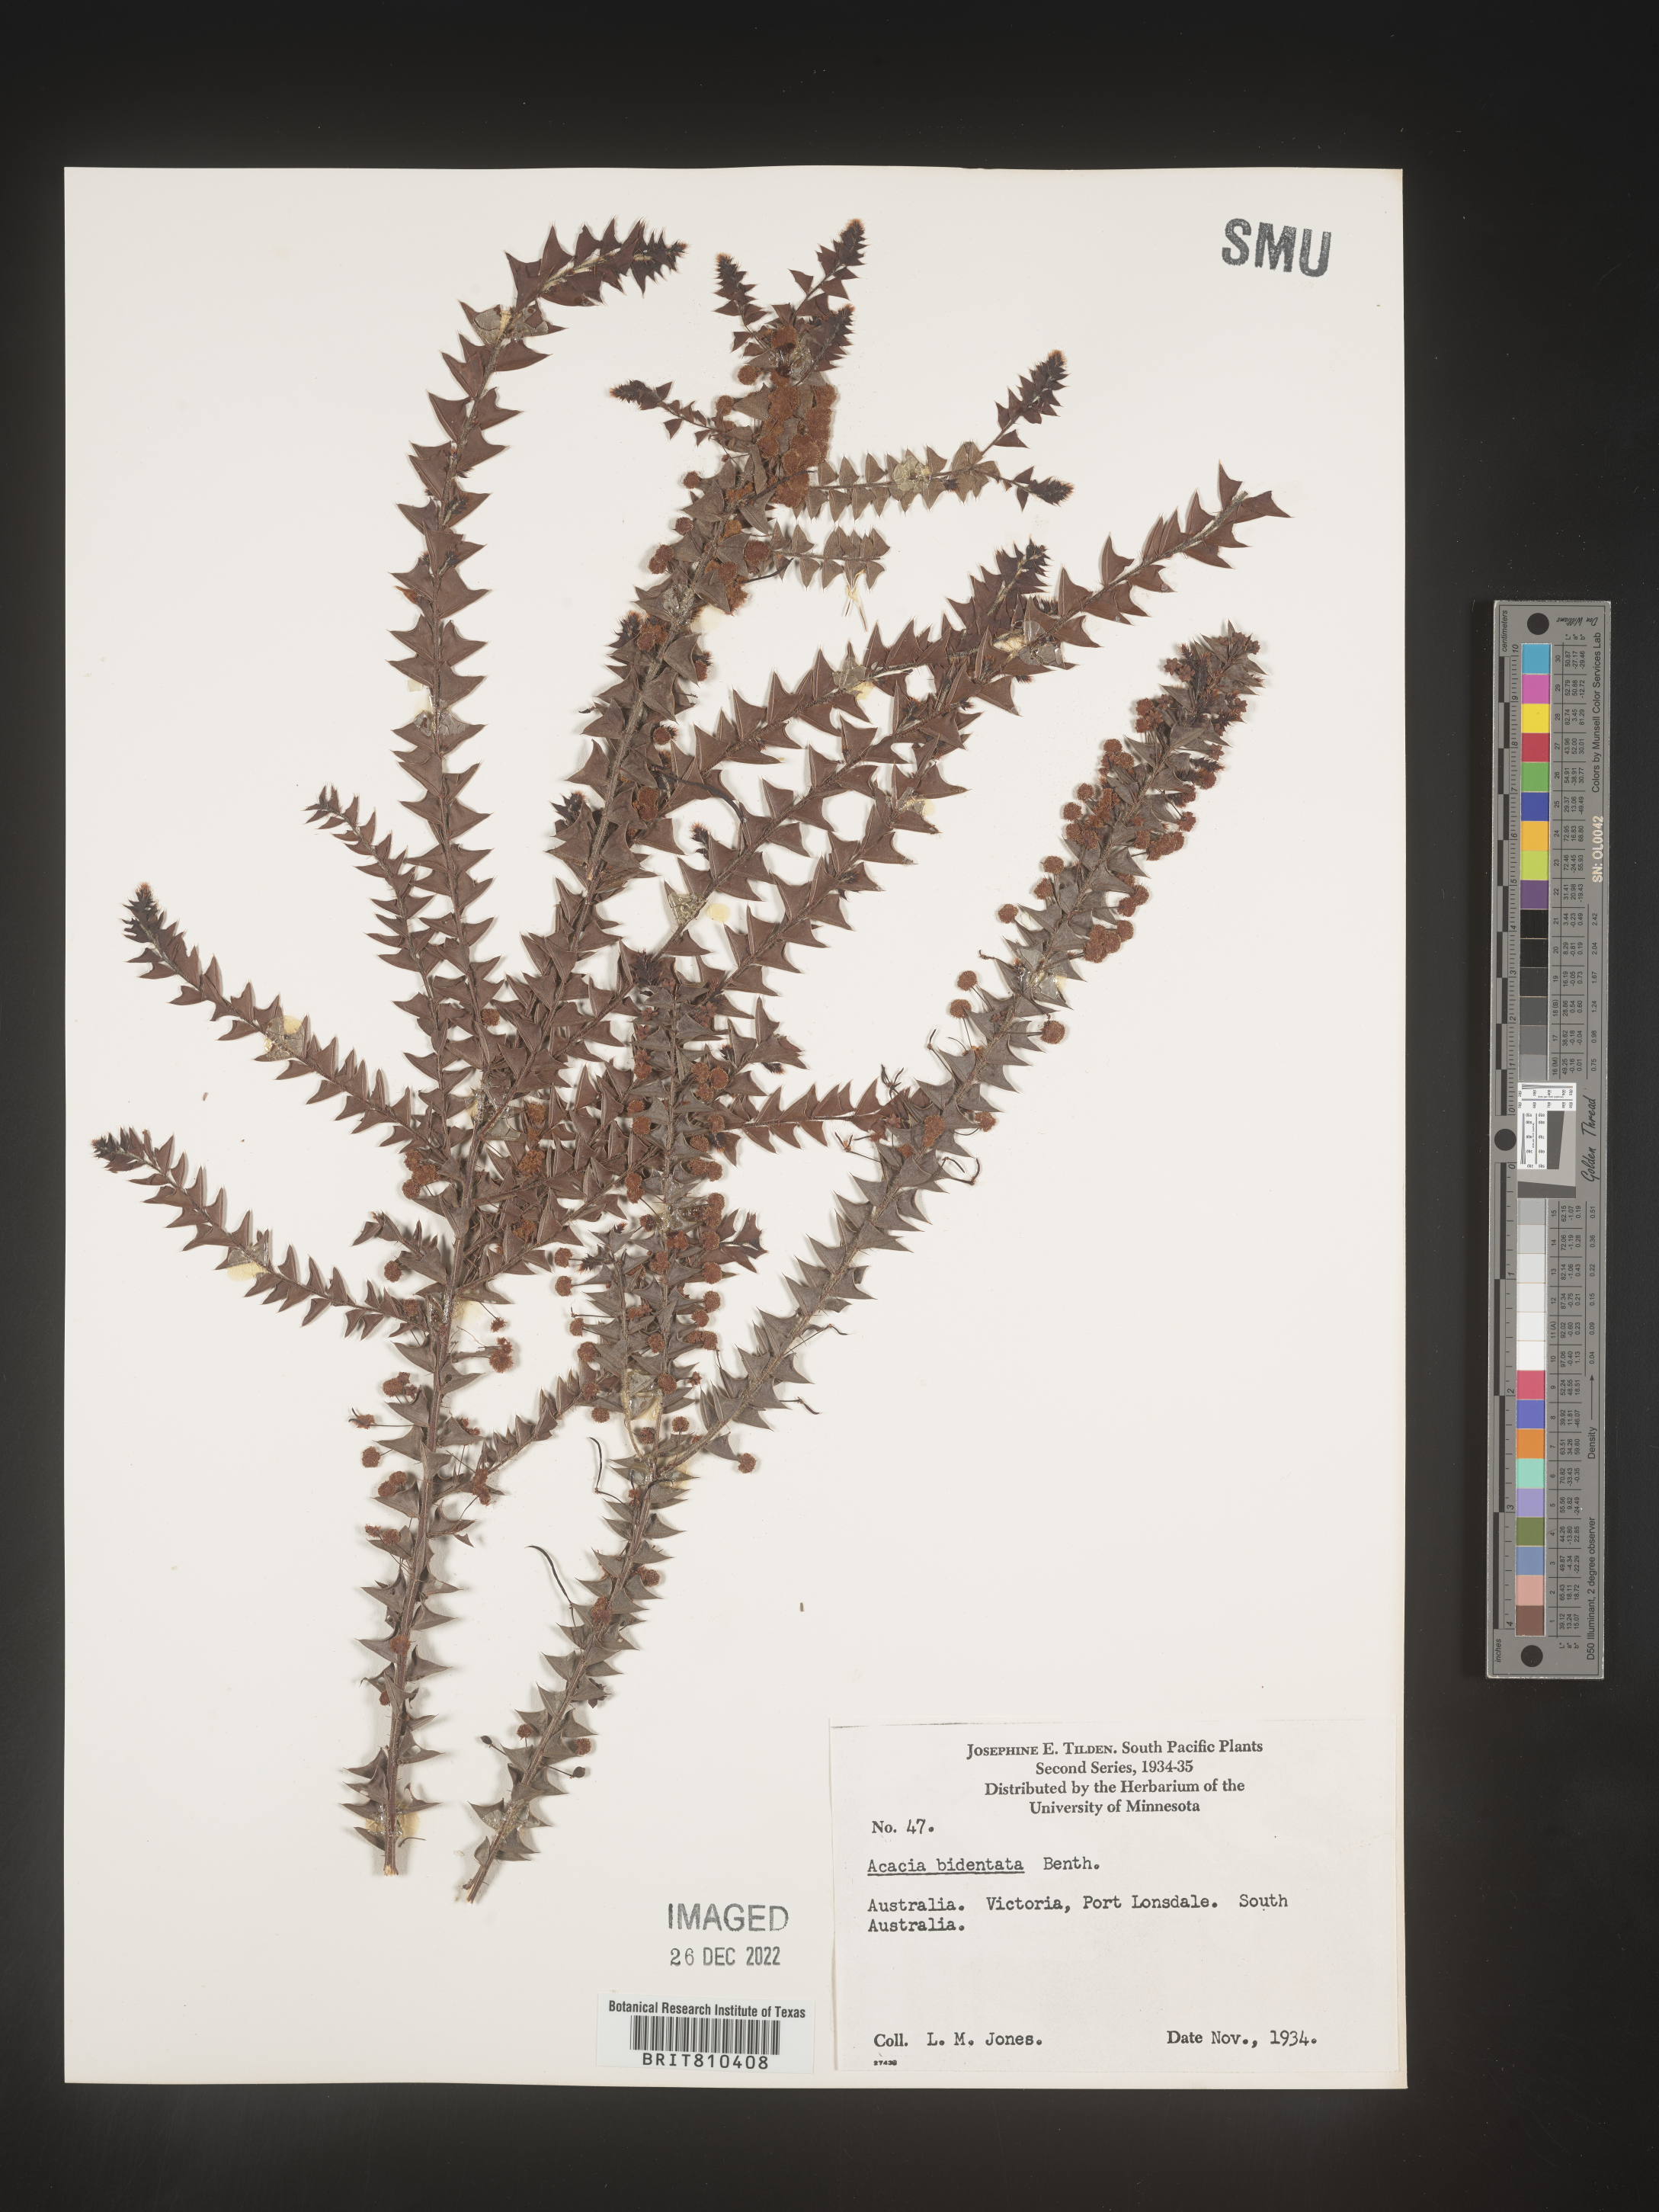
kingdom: Plantae
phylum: Tracheophyta
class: Magnoliopsida
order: Fabales
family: Fabaceae
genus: Acacia
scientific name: Acacia
